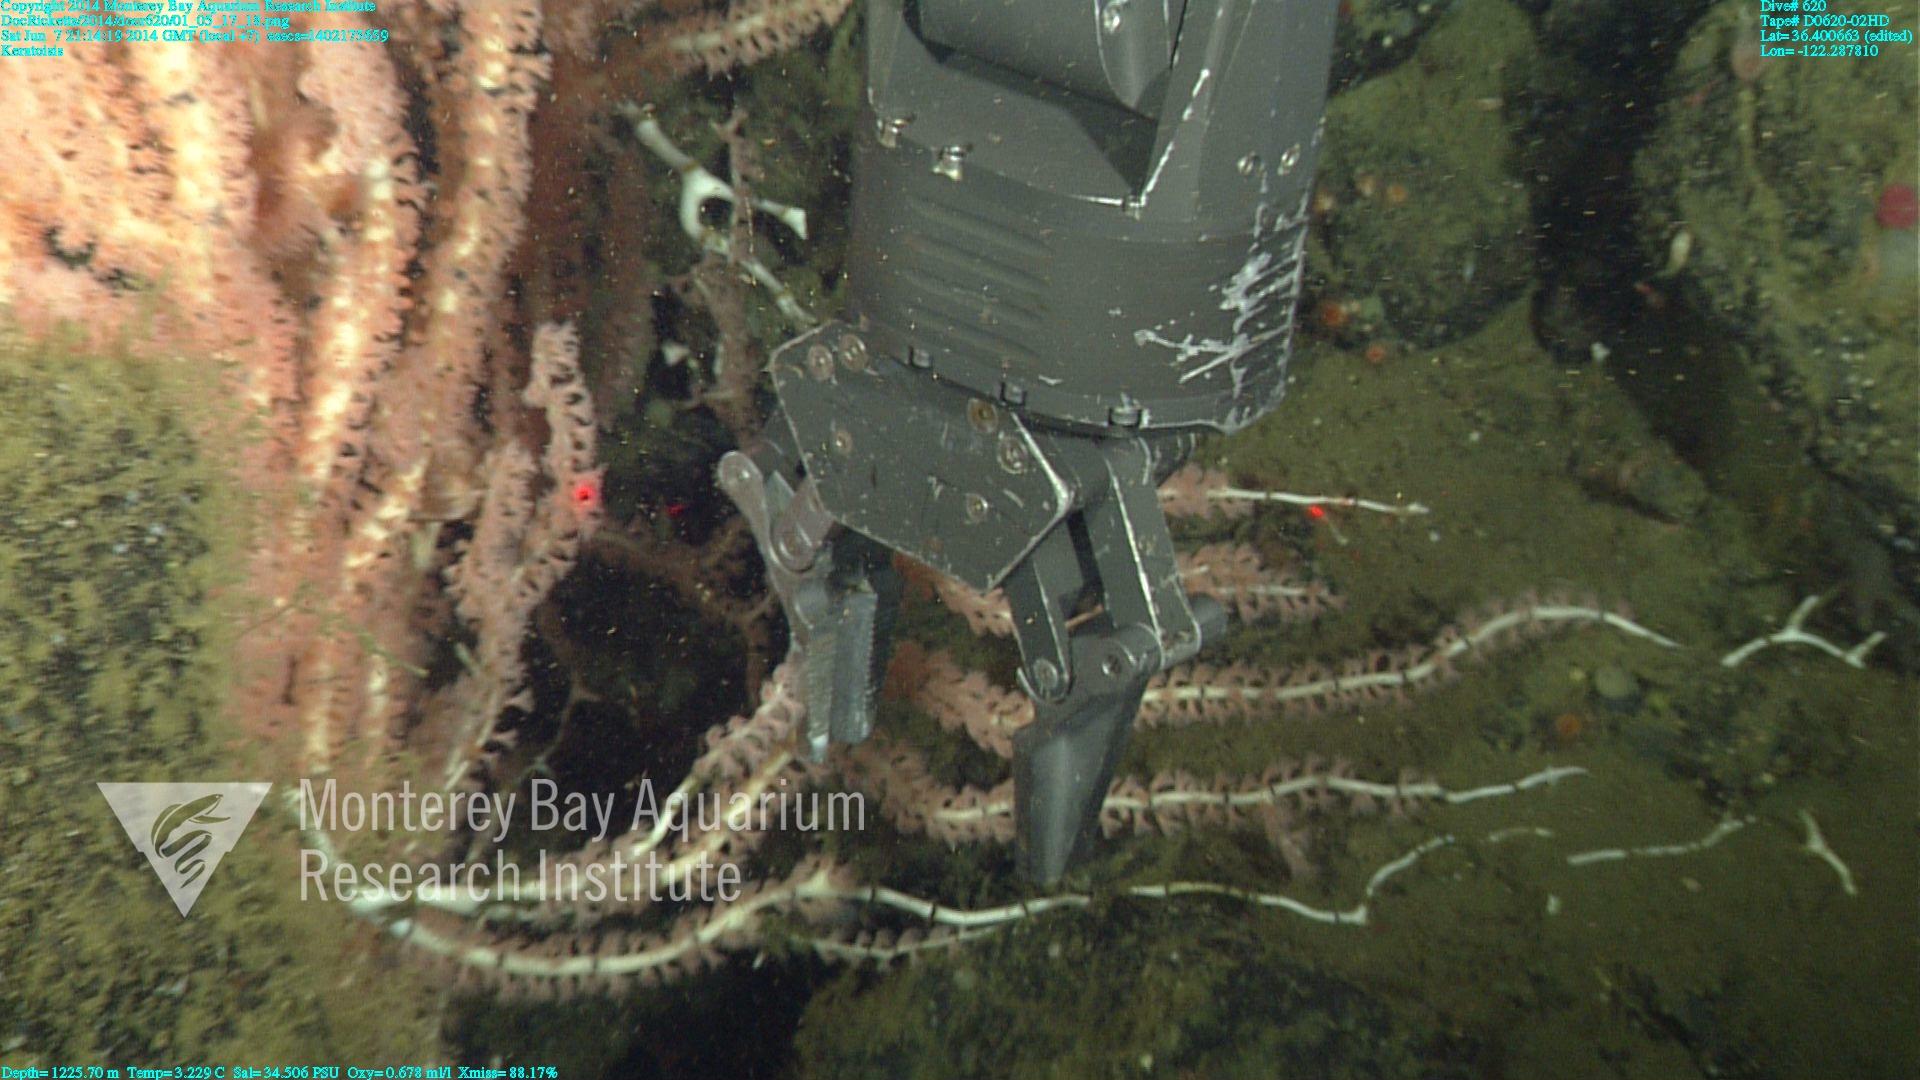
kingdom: Animalia
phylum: Cnidaria
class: Anthozoa
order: Scleralcyonacea
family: Keratoisididae
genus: Keratoisis
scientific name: Keratoisis
